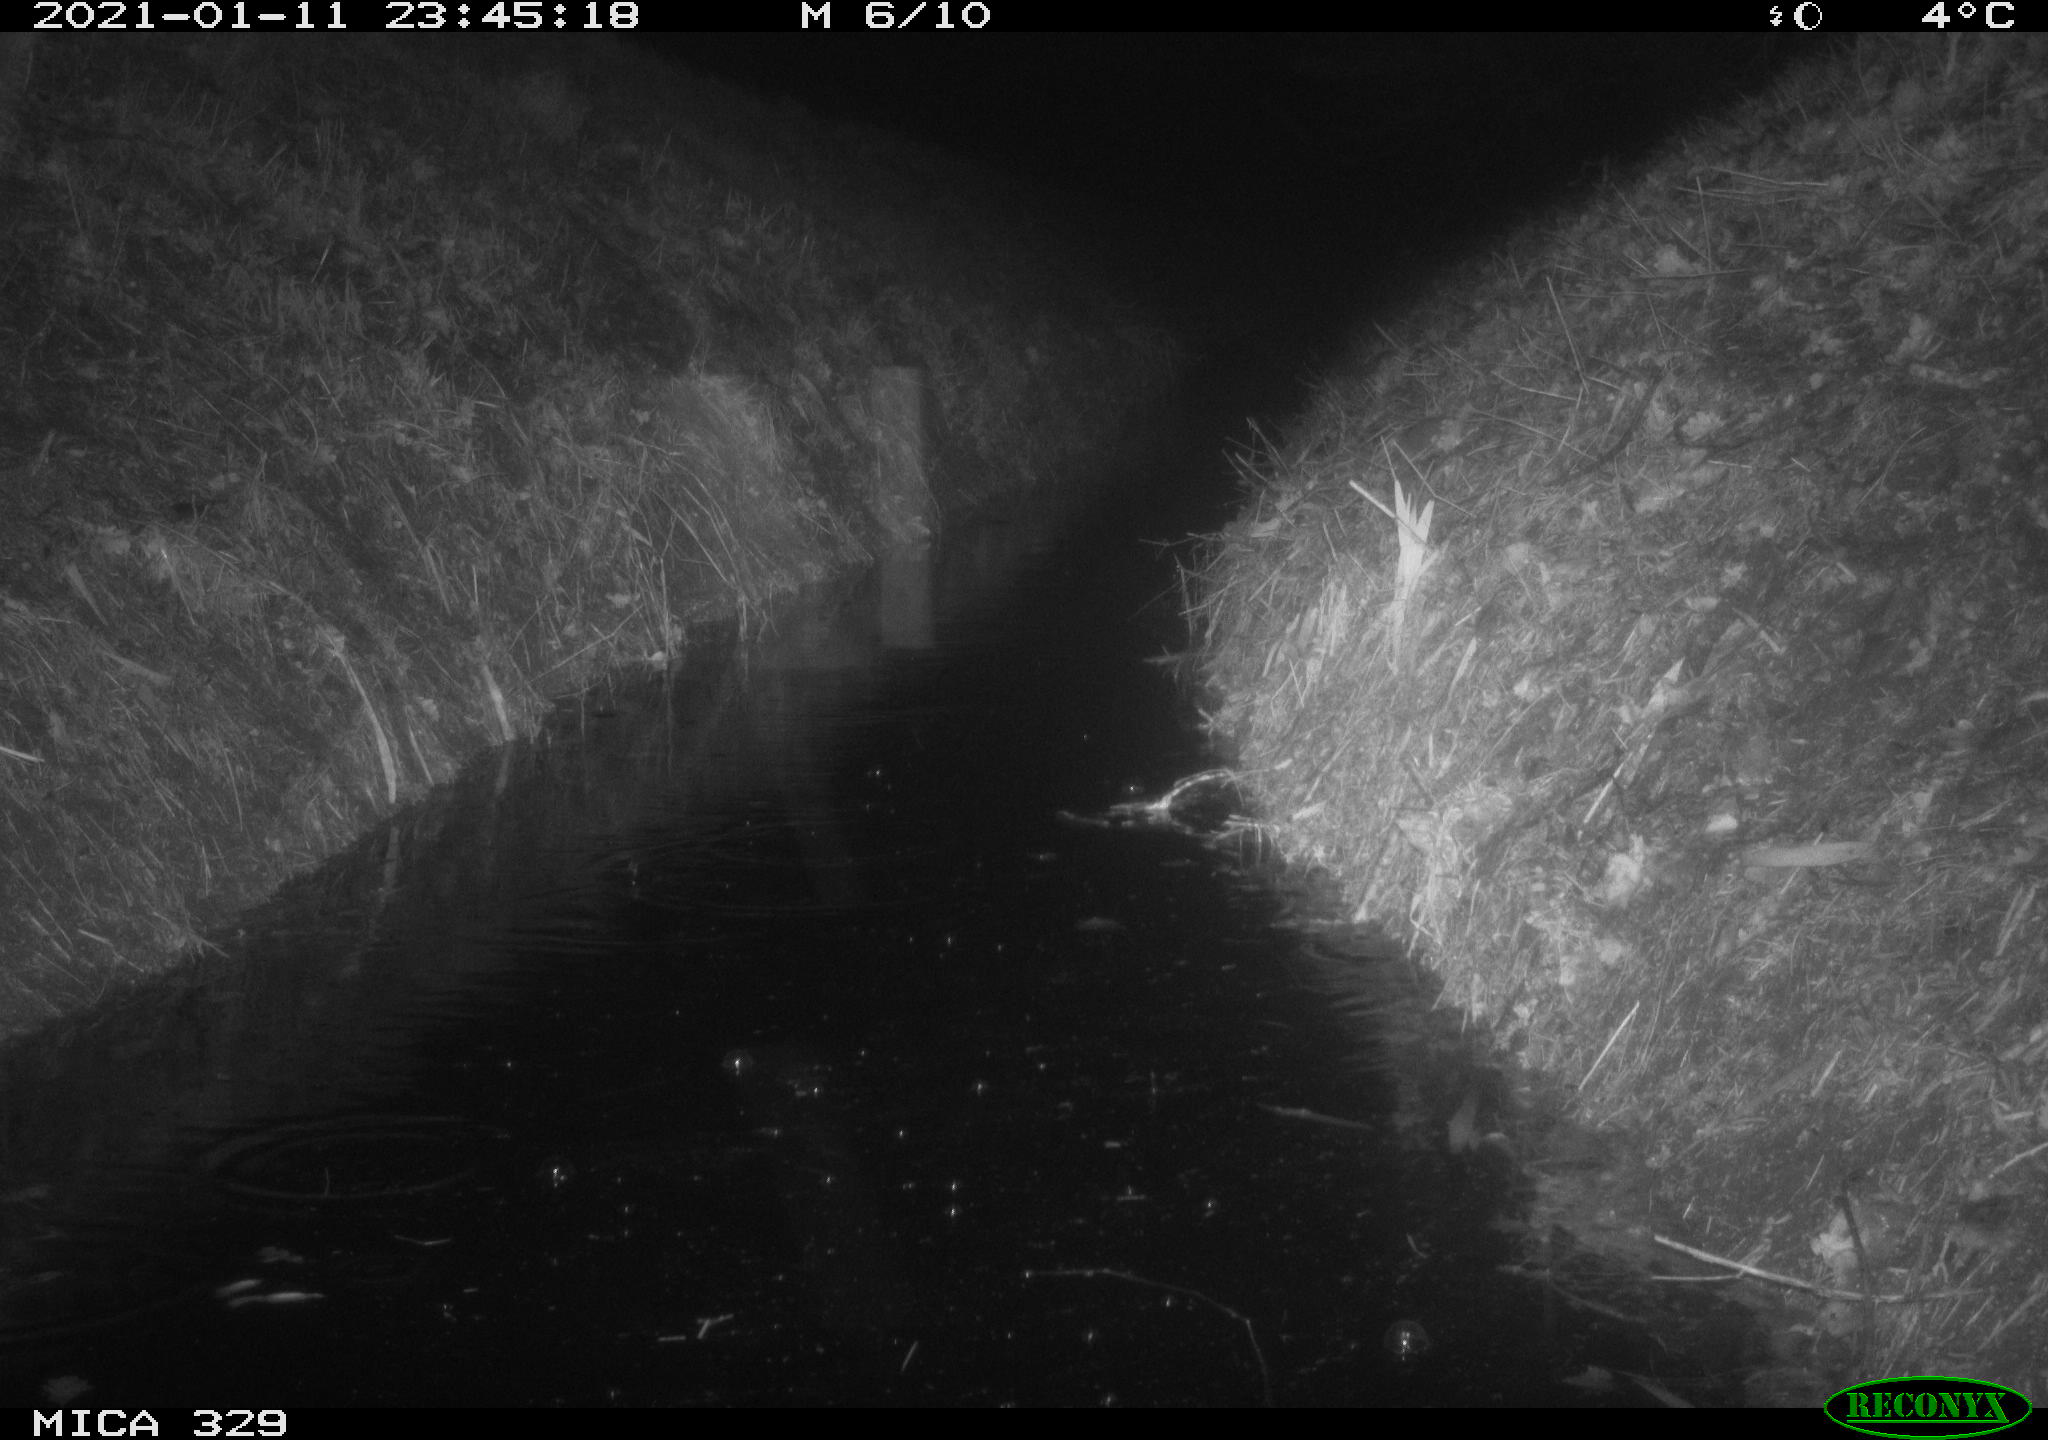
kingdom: Animalia
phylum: Chordata
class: Mammalia
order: Rodentia
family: Muridae
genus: Rattus
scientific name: Rattus norvegicus
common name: Brown rat
